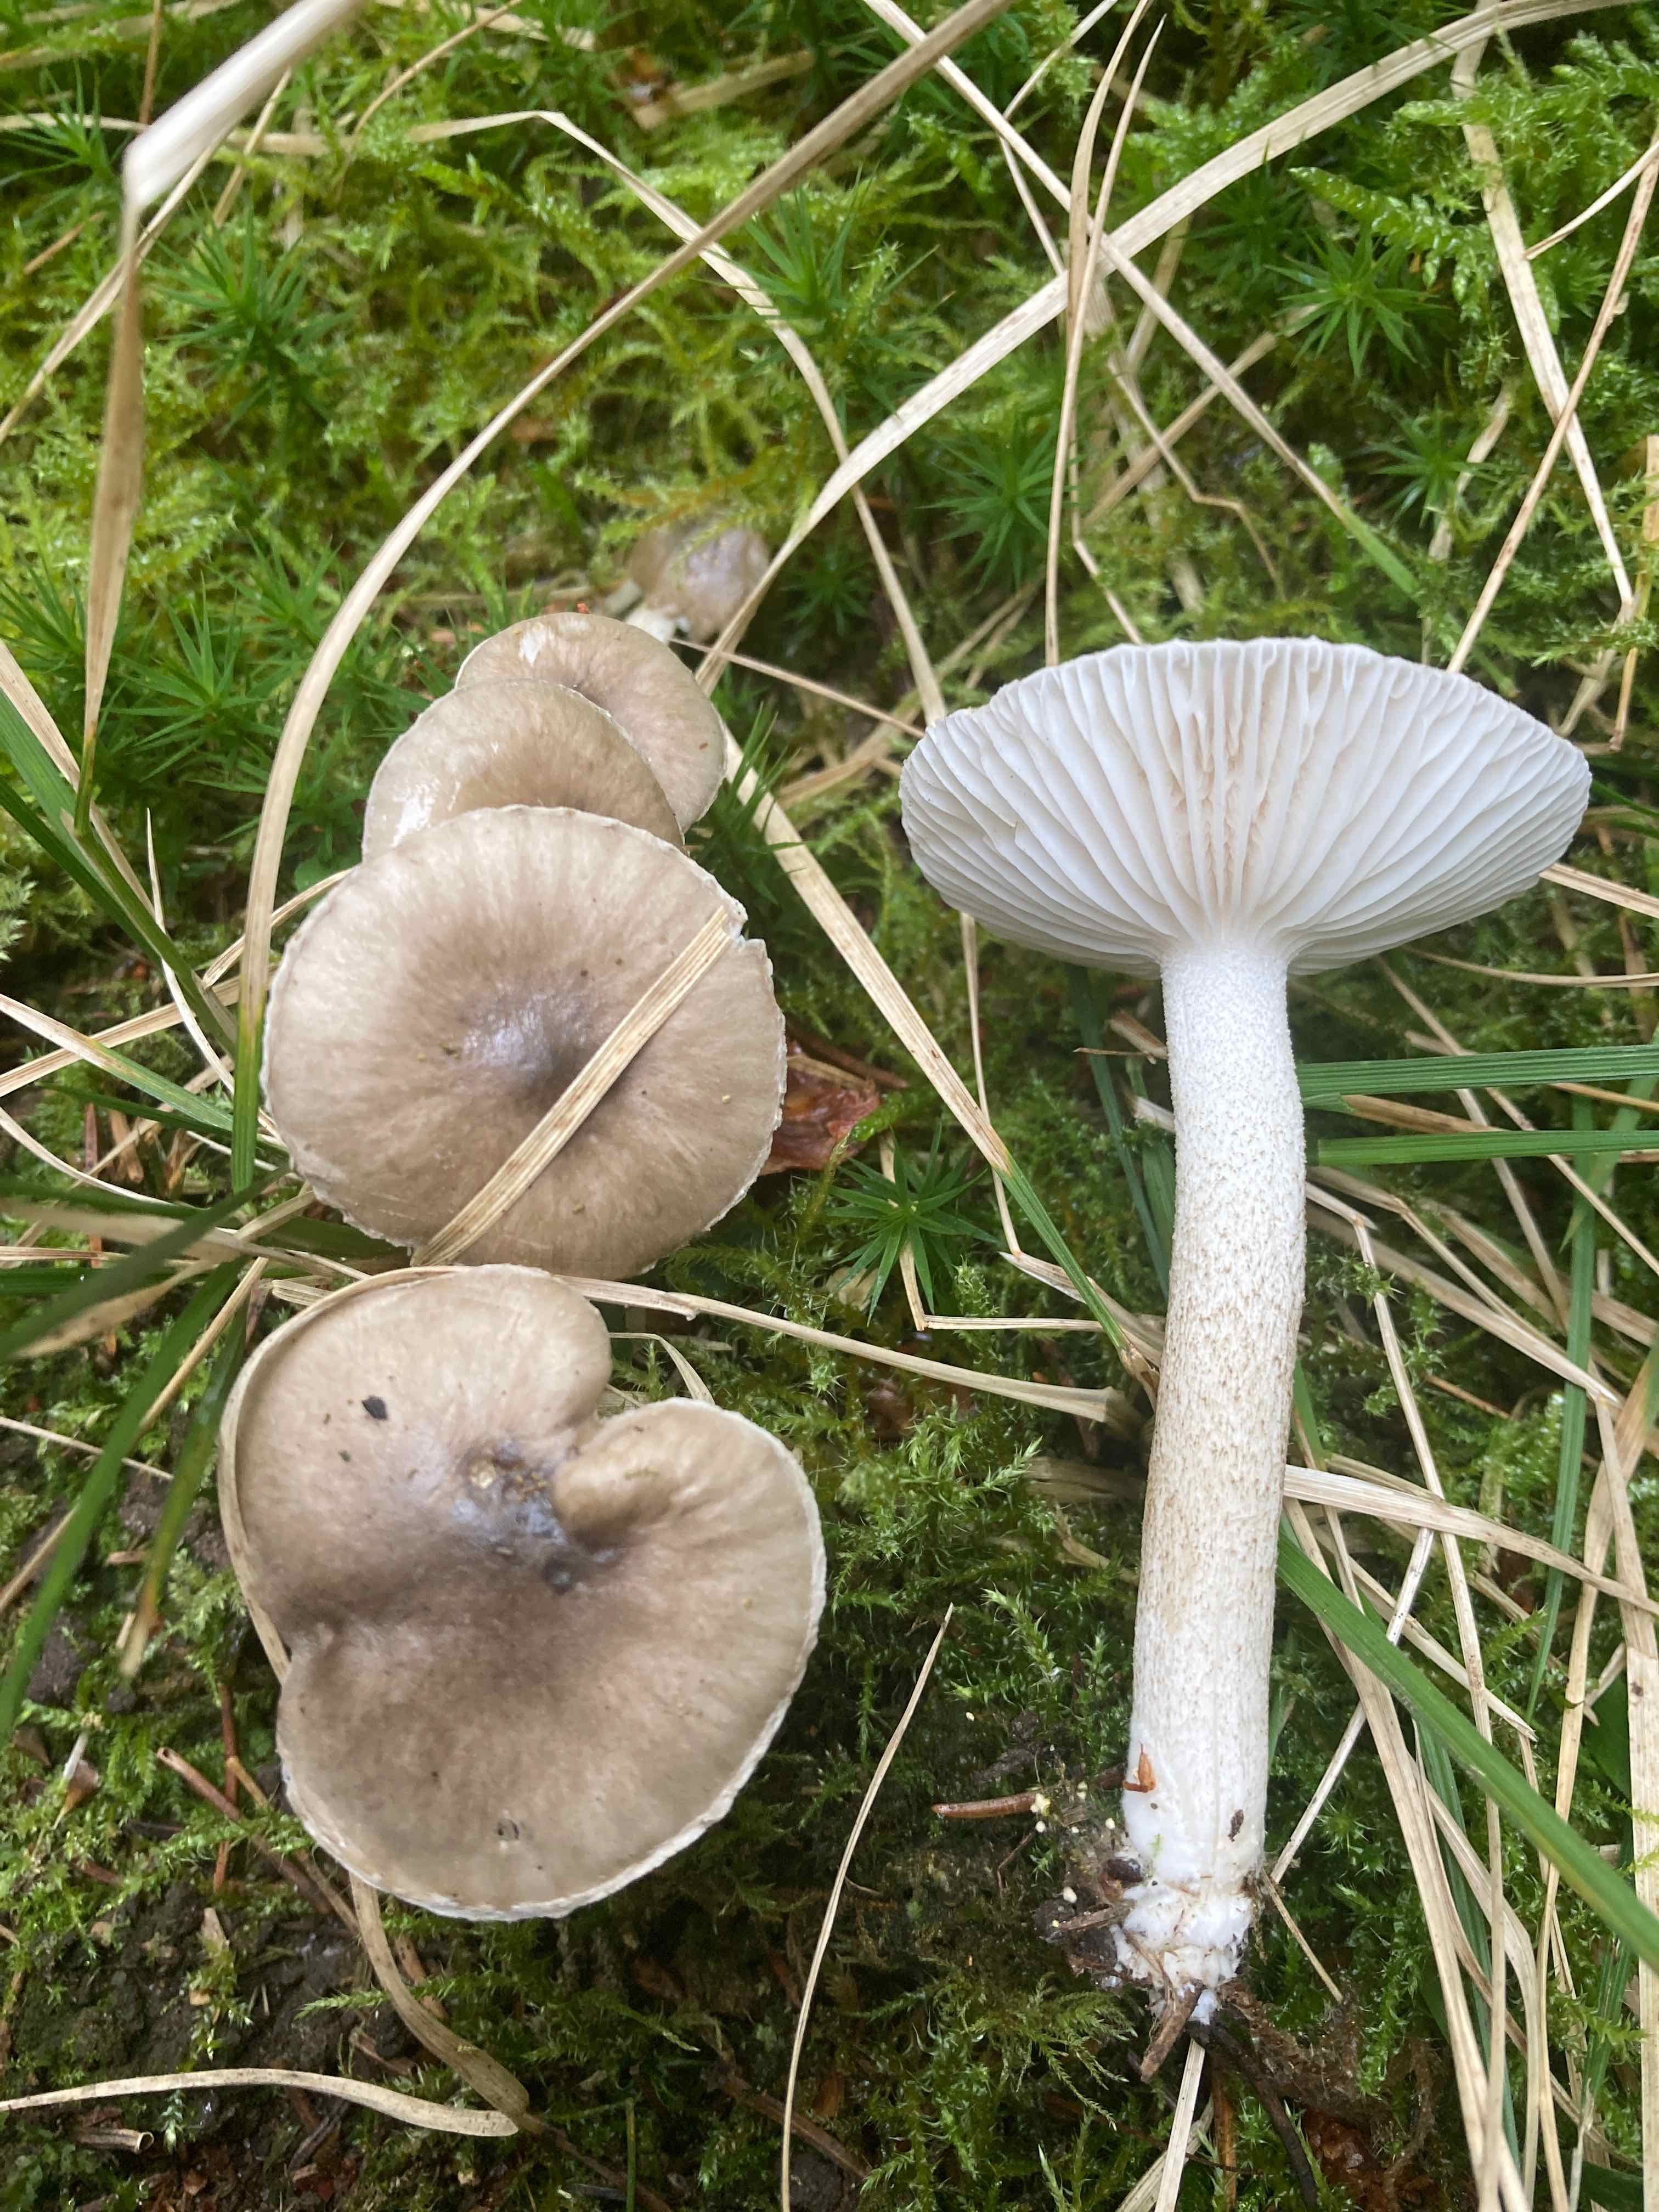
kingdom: Fungi
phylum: Basidiomycota
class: Agaricomycetes
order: Agaricales
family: Hygrophoraceae
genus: Hygrophorus
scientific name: Hygrophorus pustulatus
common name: mørkprikket sneglehat
